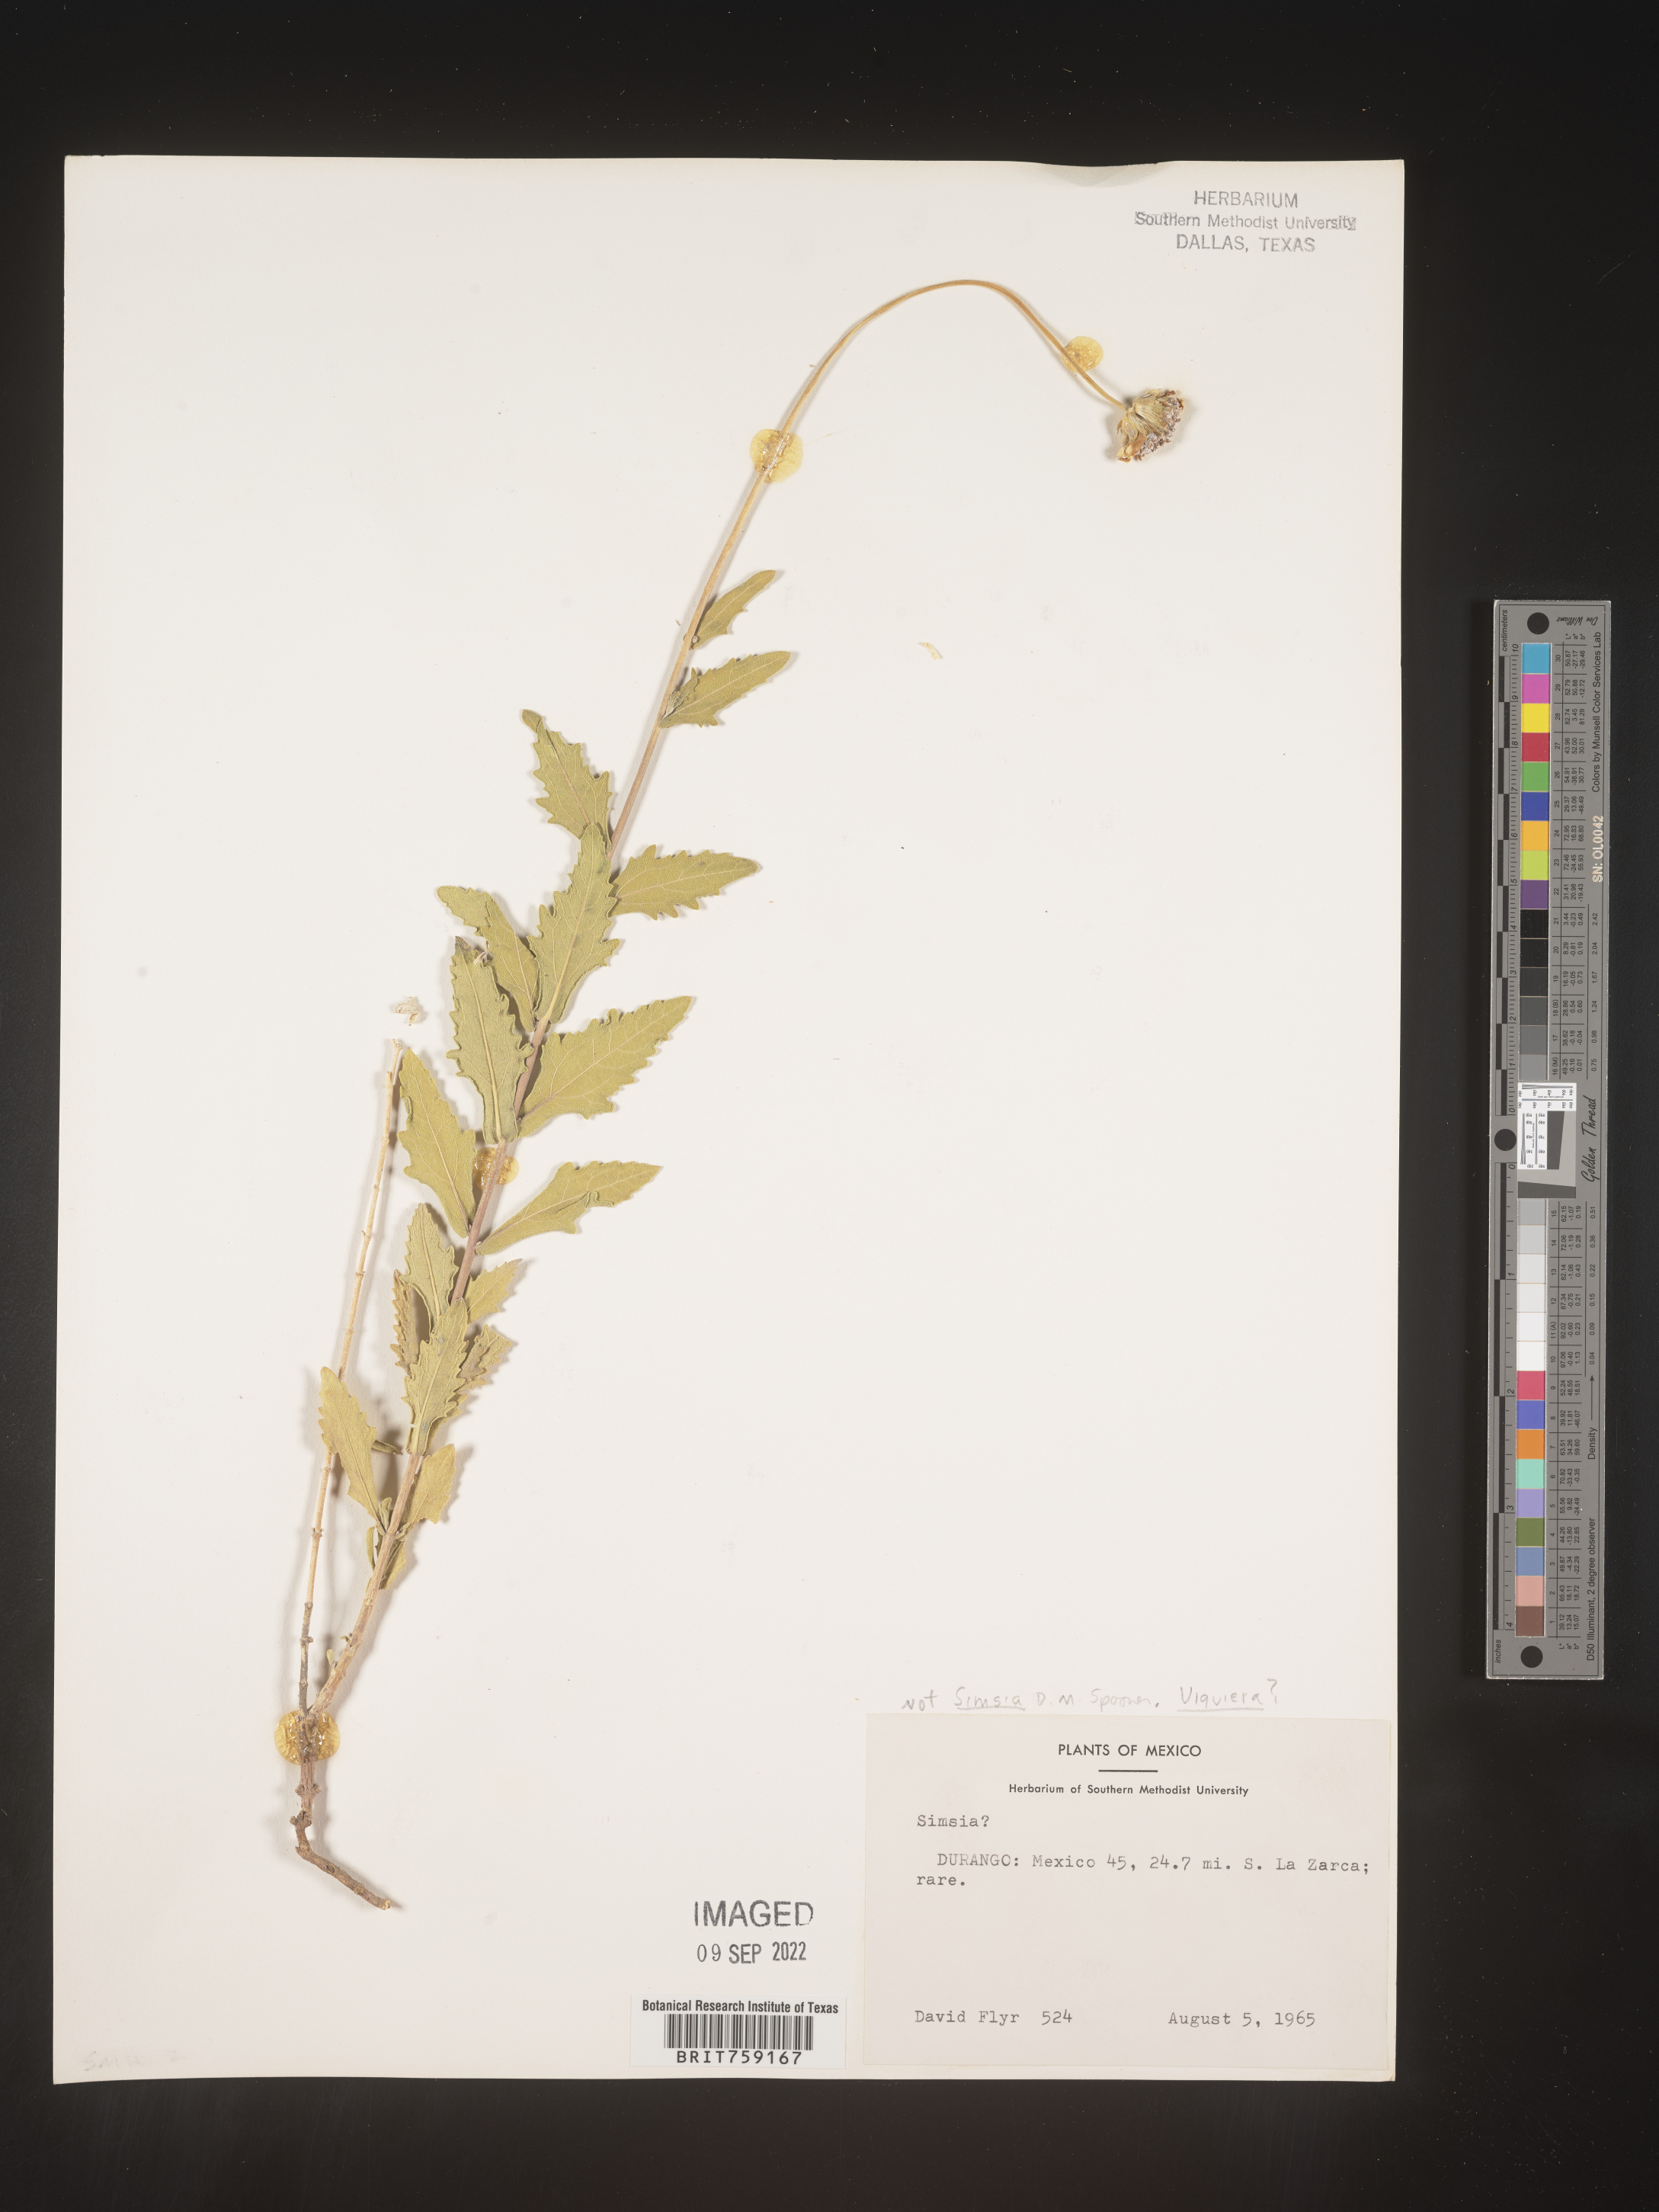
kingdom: Plantae
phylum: Tracheophyta
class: Magnoliopsida
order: Asterales
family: Asteraceae
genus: Viguiera
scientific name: Viguiera
